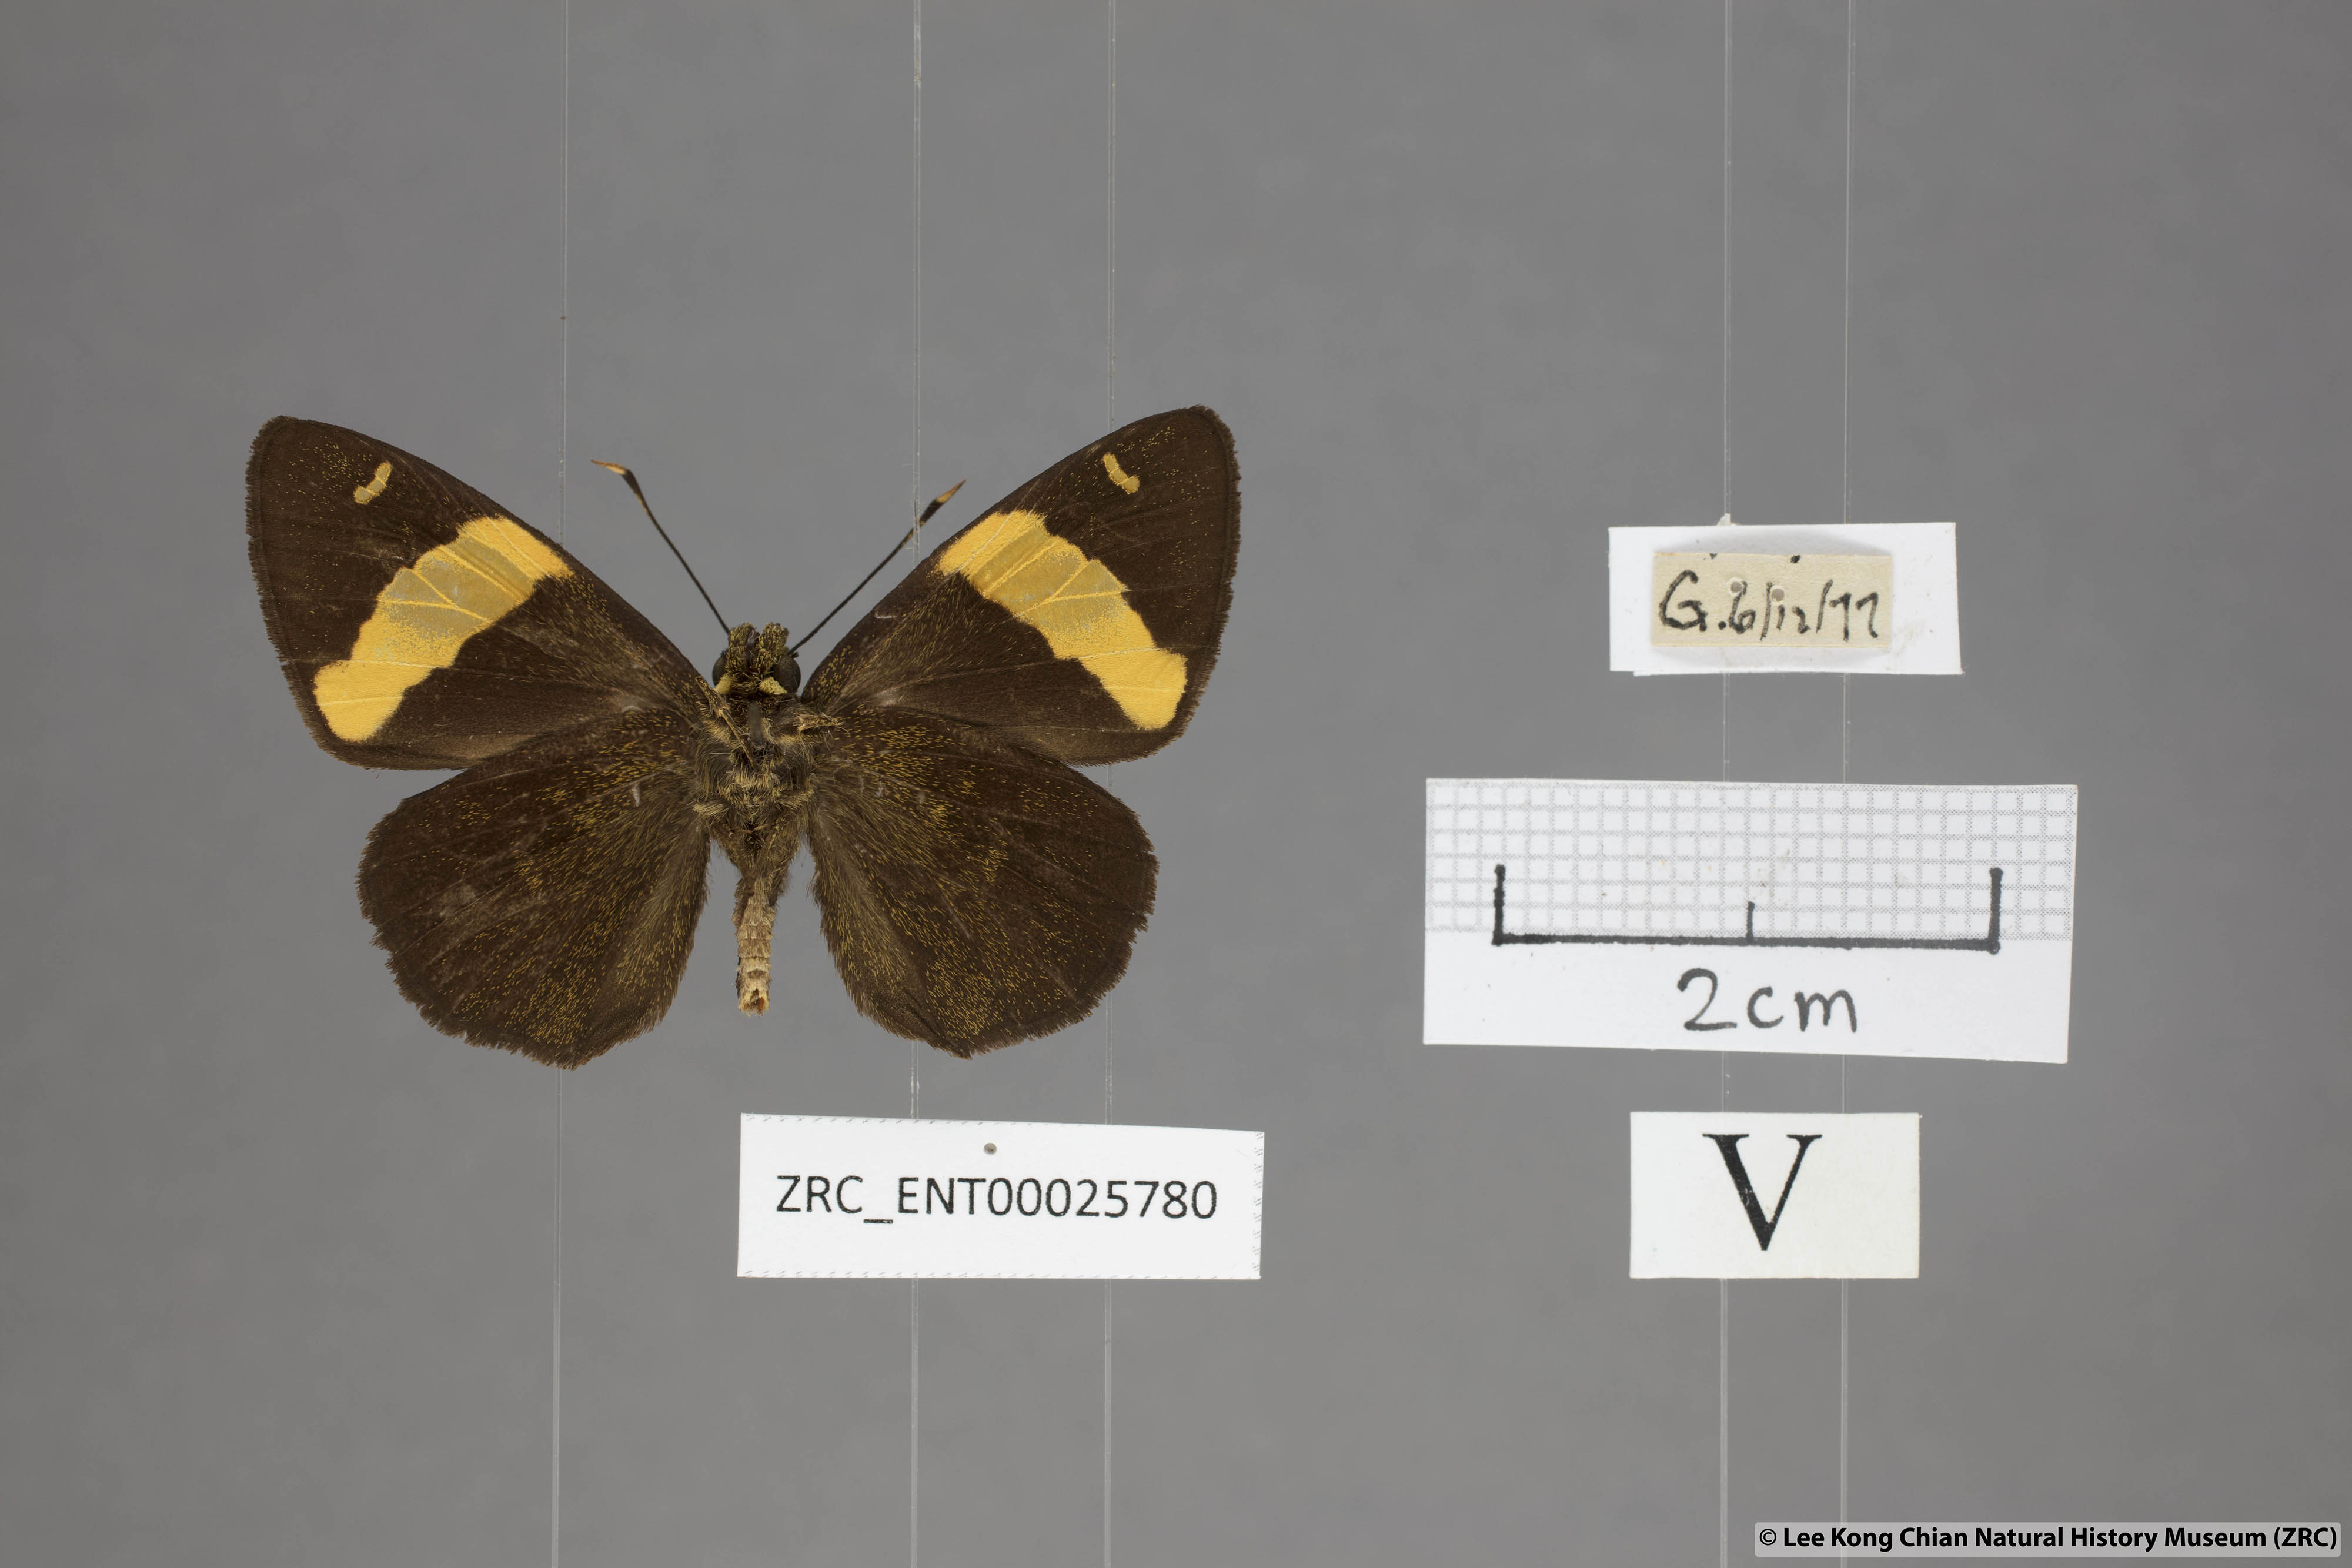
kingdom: Animalia
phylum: Arthropoda
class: Insecta
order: Lepidoptera
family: Hesperiidae
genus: Celaenorrhinus
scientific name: Celaenorrhinus aurivittata
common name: Dark yellow-banded flat
